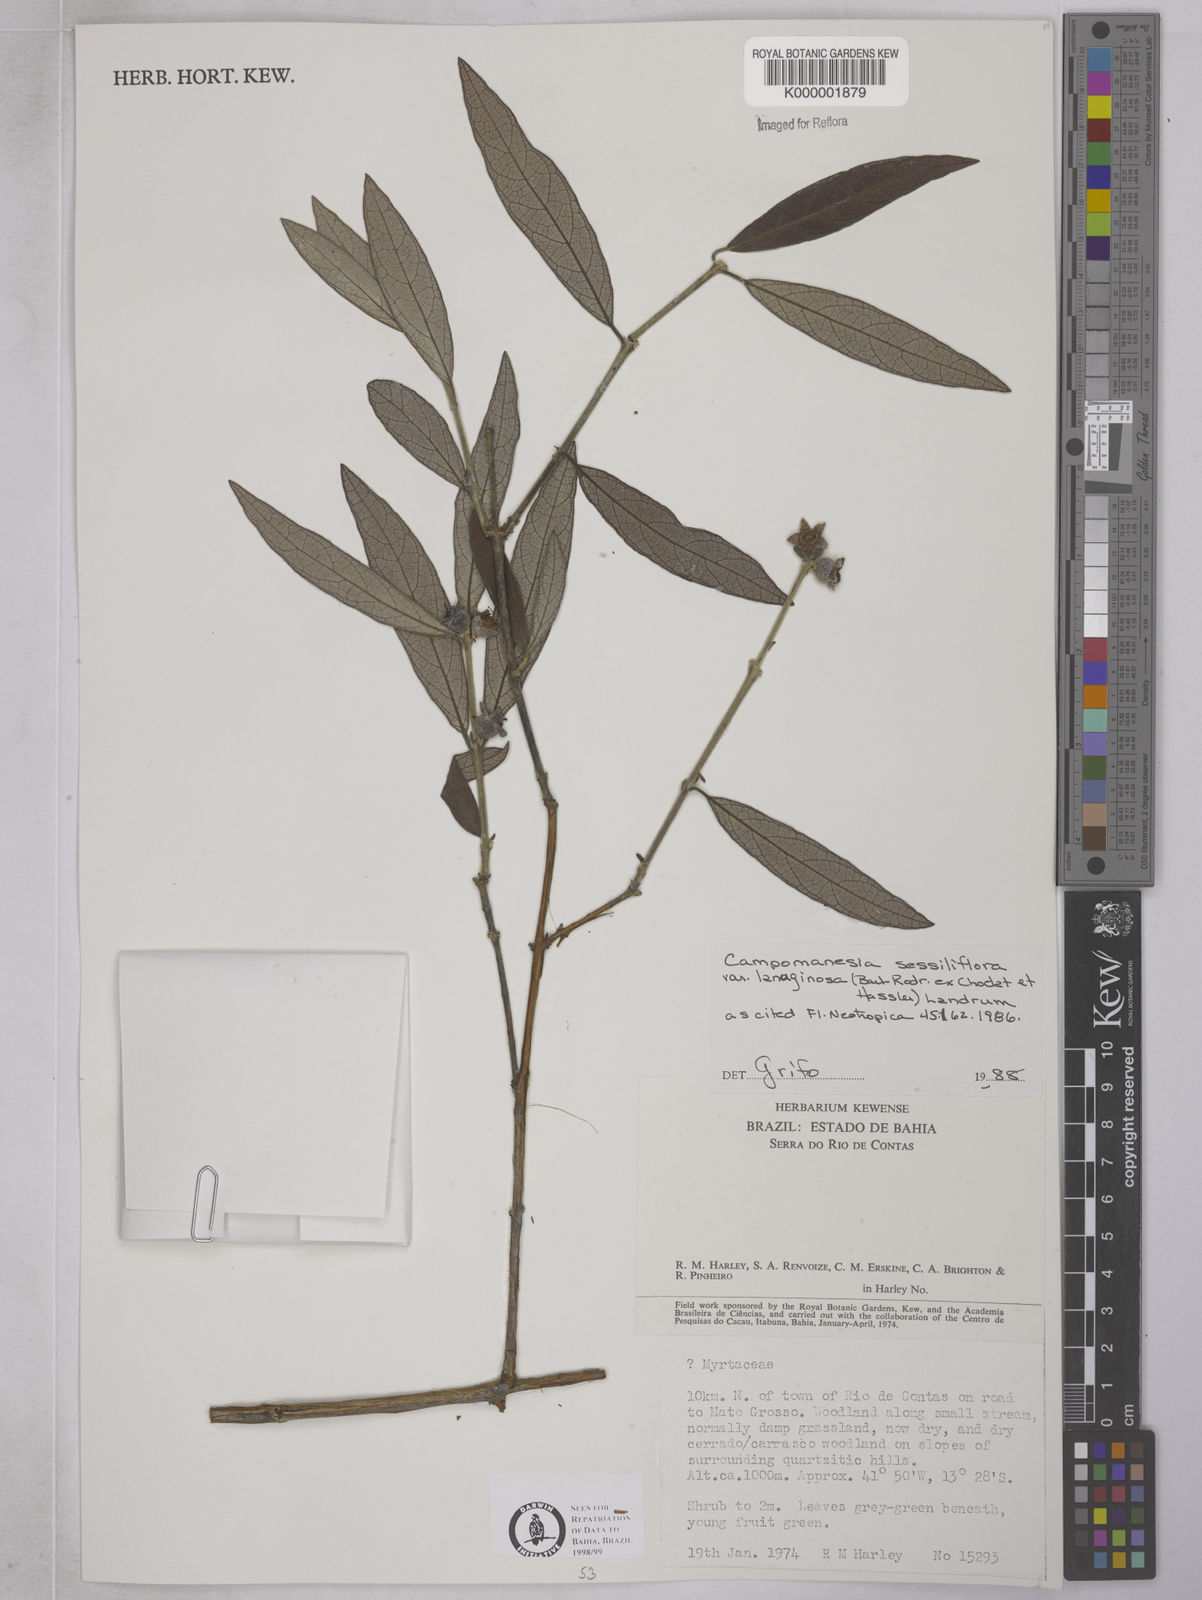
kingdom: Plantae
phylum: Tracheophyta
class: Magnoliopsida
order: Myrtales
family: Myrtaceae
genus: Campomanesia
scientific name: Campomanesia sessiliflora
